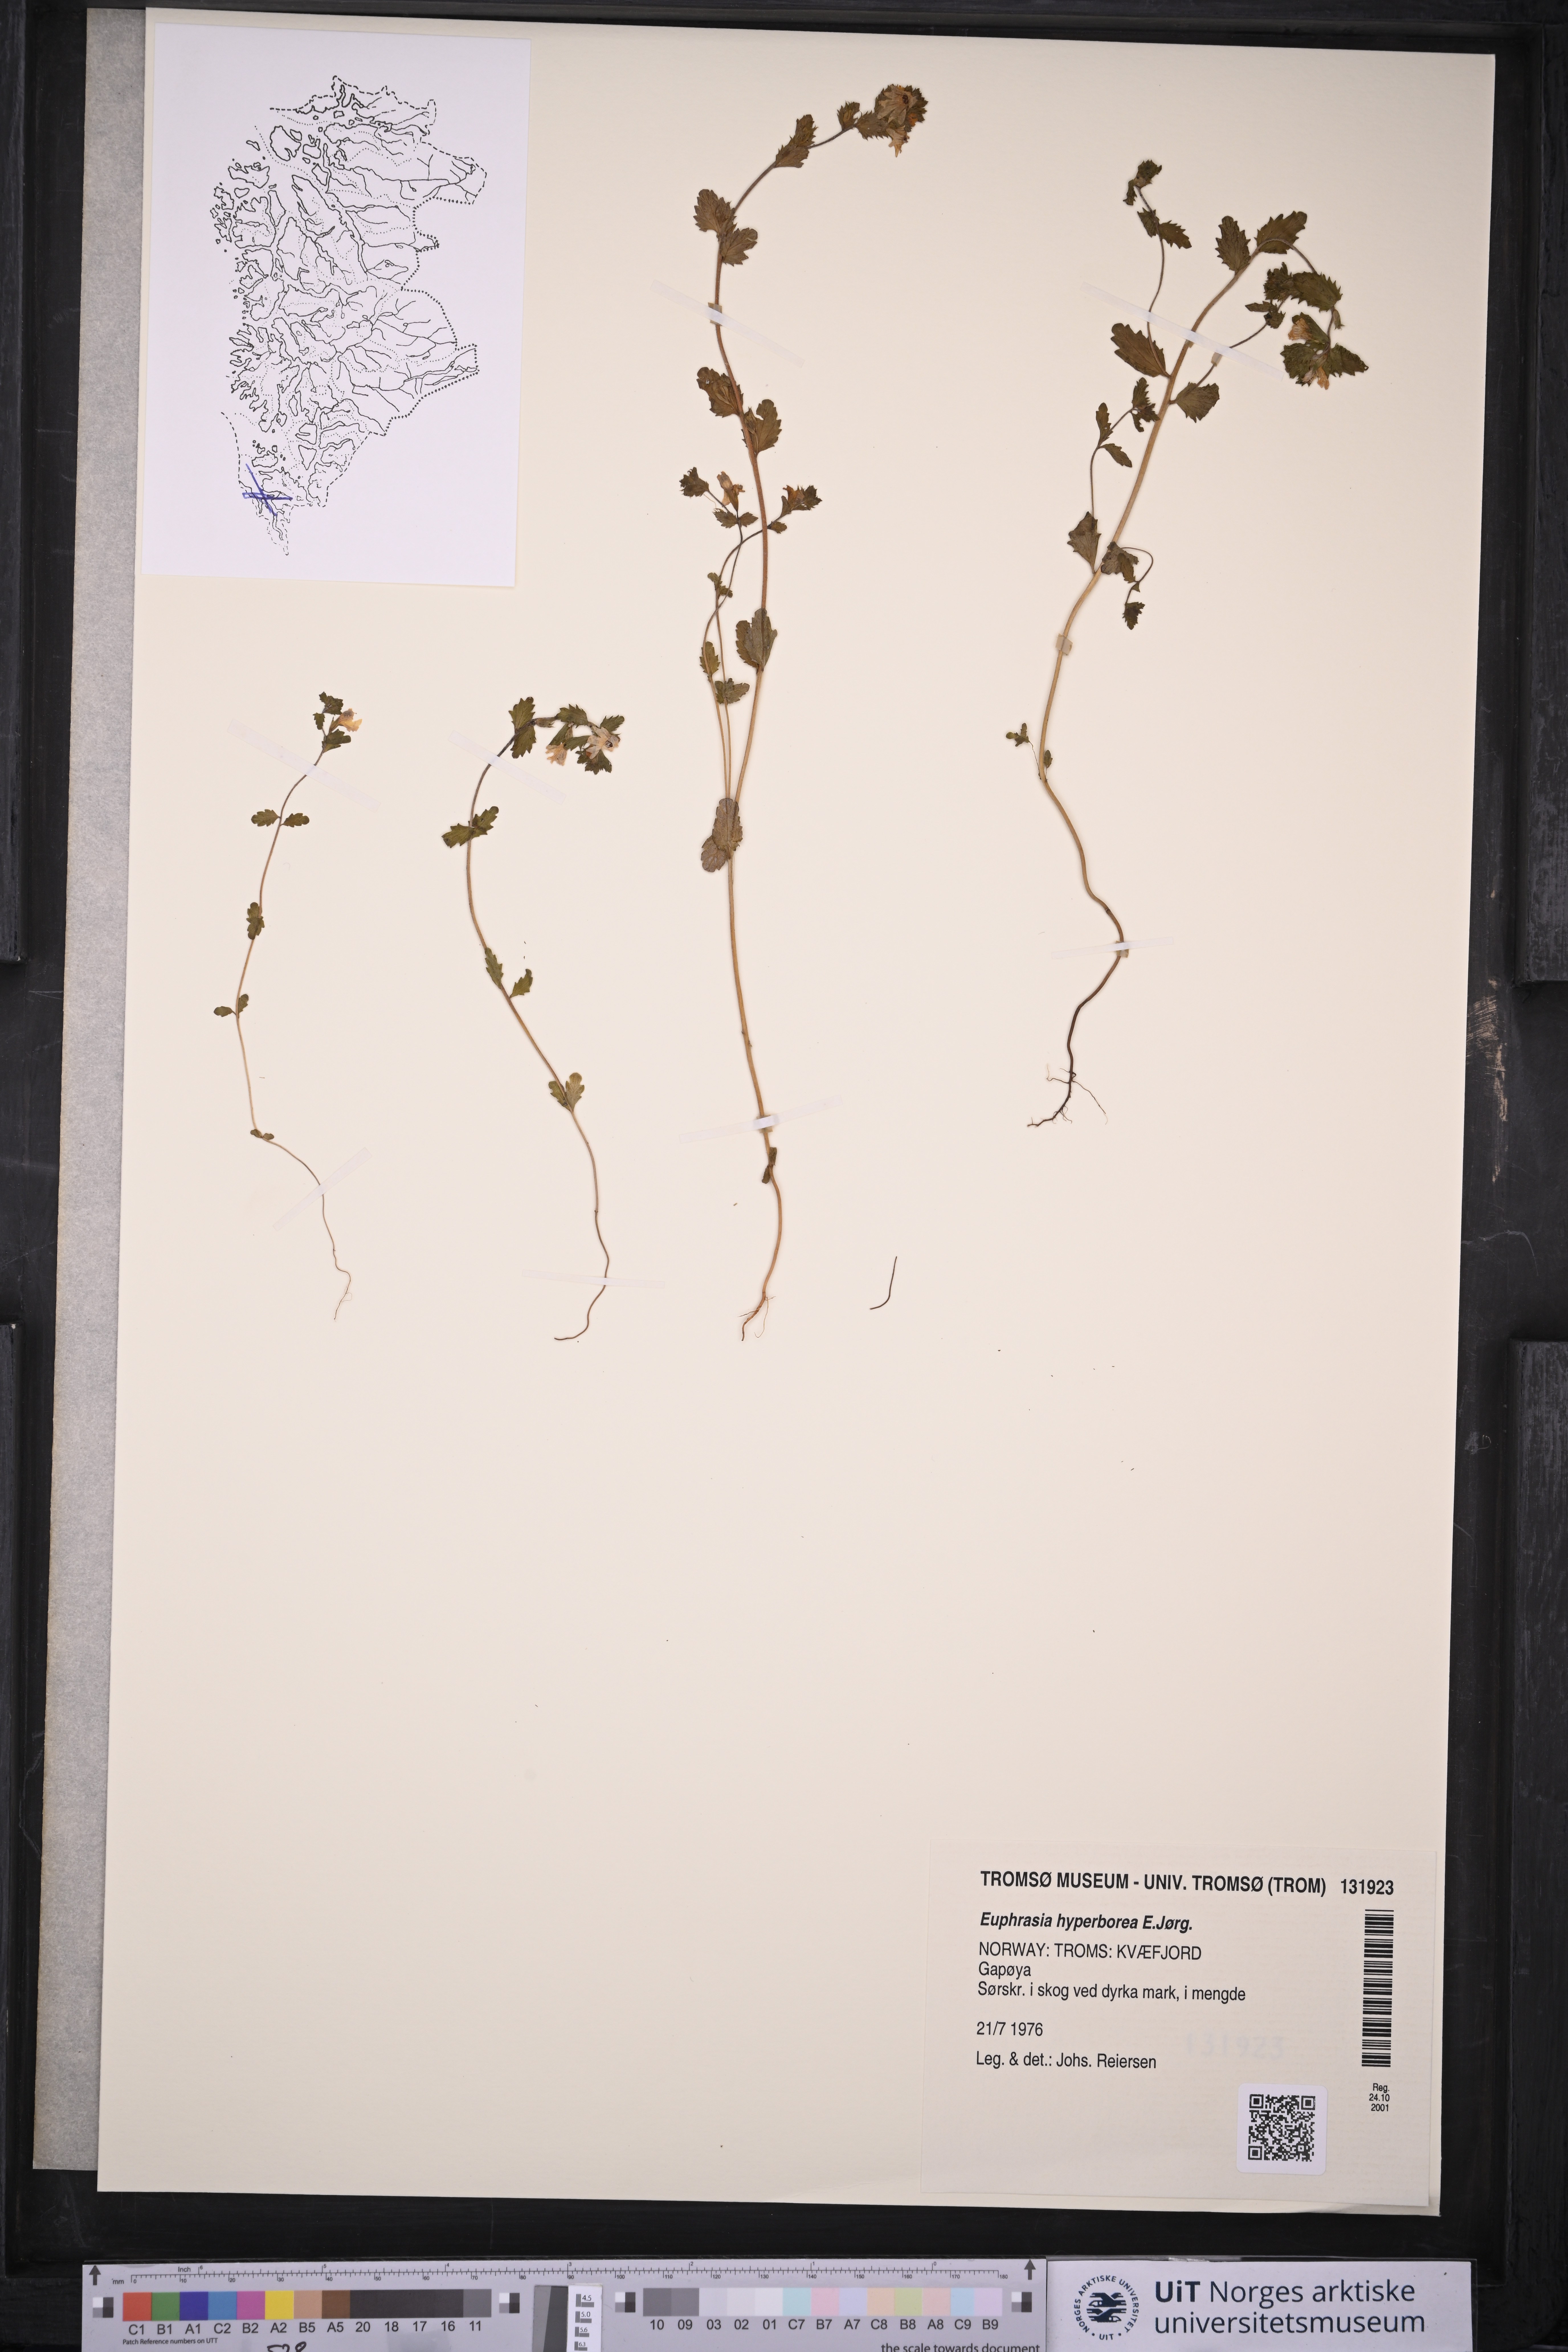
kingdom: Plantae
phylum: Tracheophyta
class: Magnoliopsida
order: Lamiales
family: Orobanchaceae
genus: Euphrasia
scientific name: Euphrasia hyperborea
